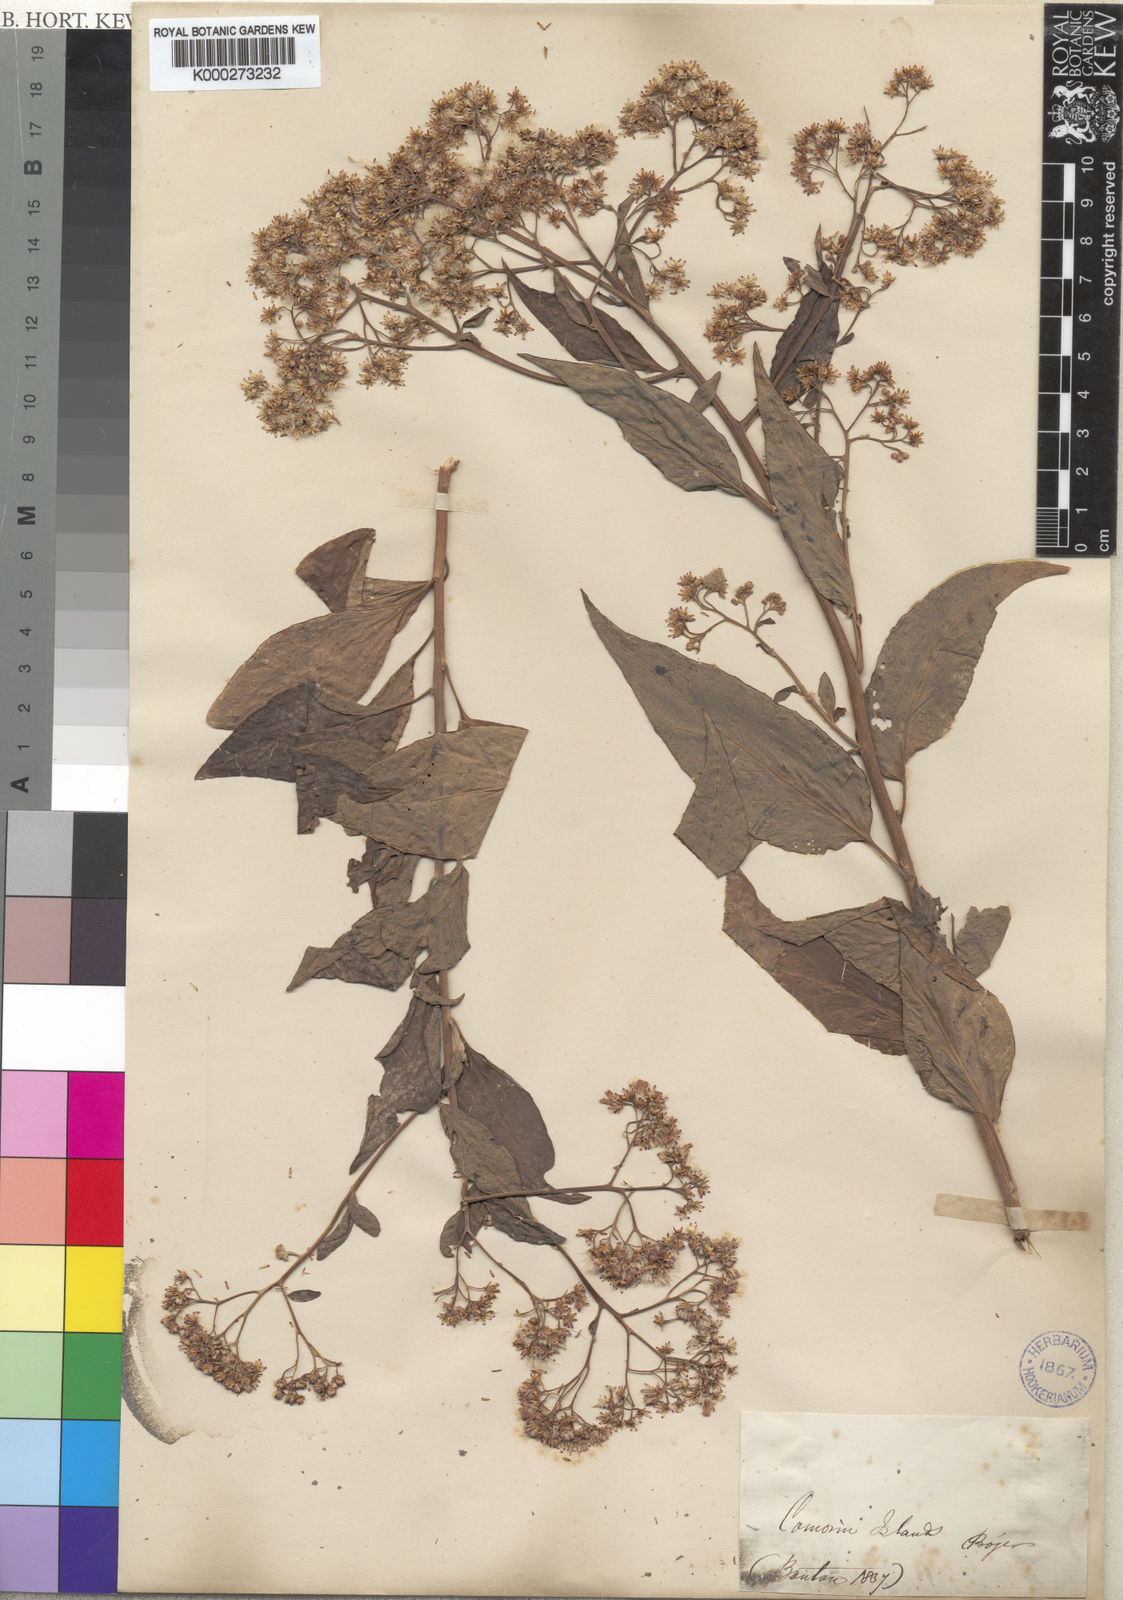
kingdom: Plantae
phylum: Tracheophyta
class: Magnoliopsida
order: Asterales
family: Asteraceae
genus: Nothovernonia
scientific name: Nothovernonia purpurea
